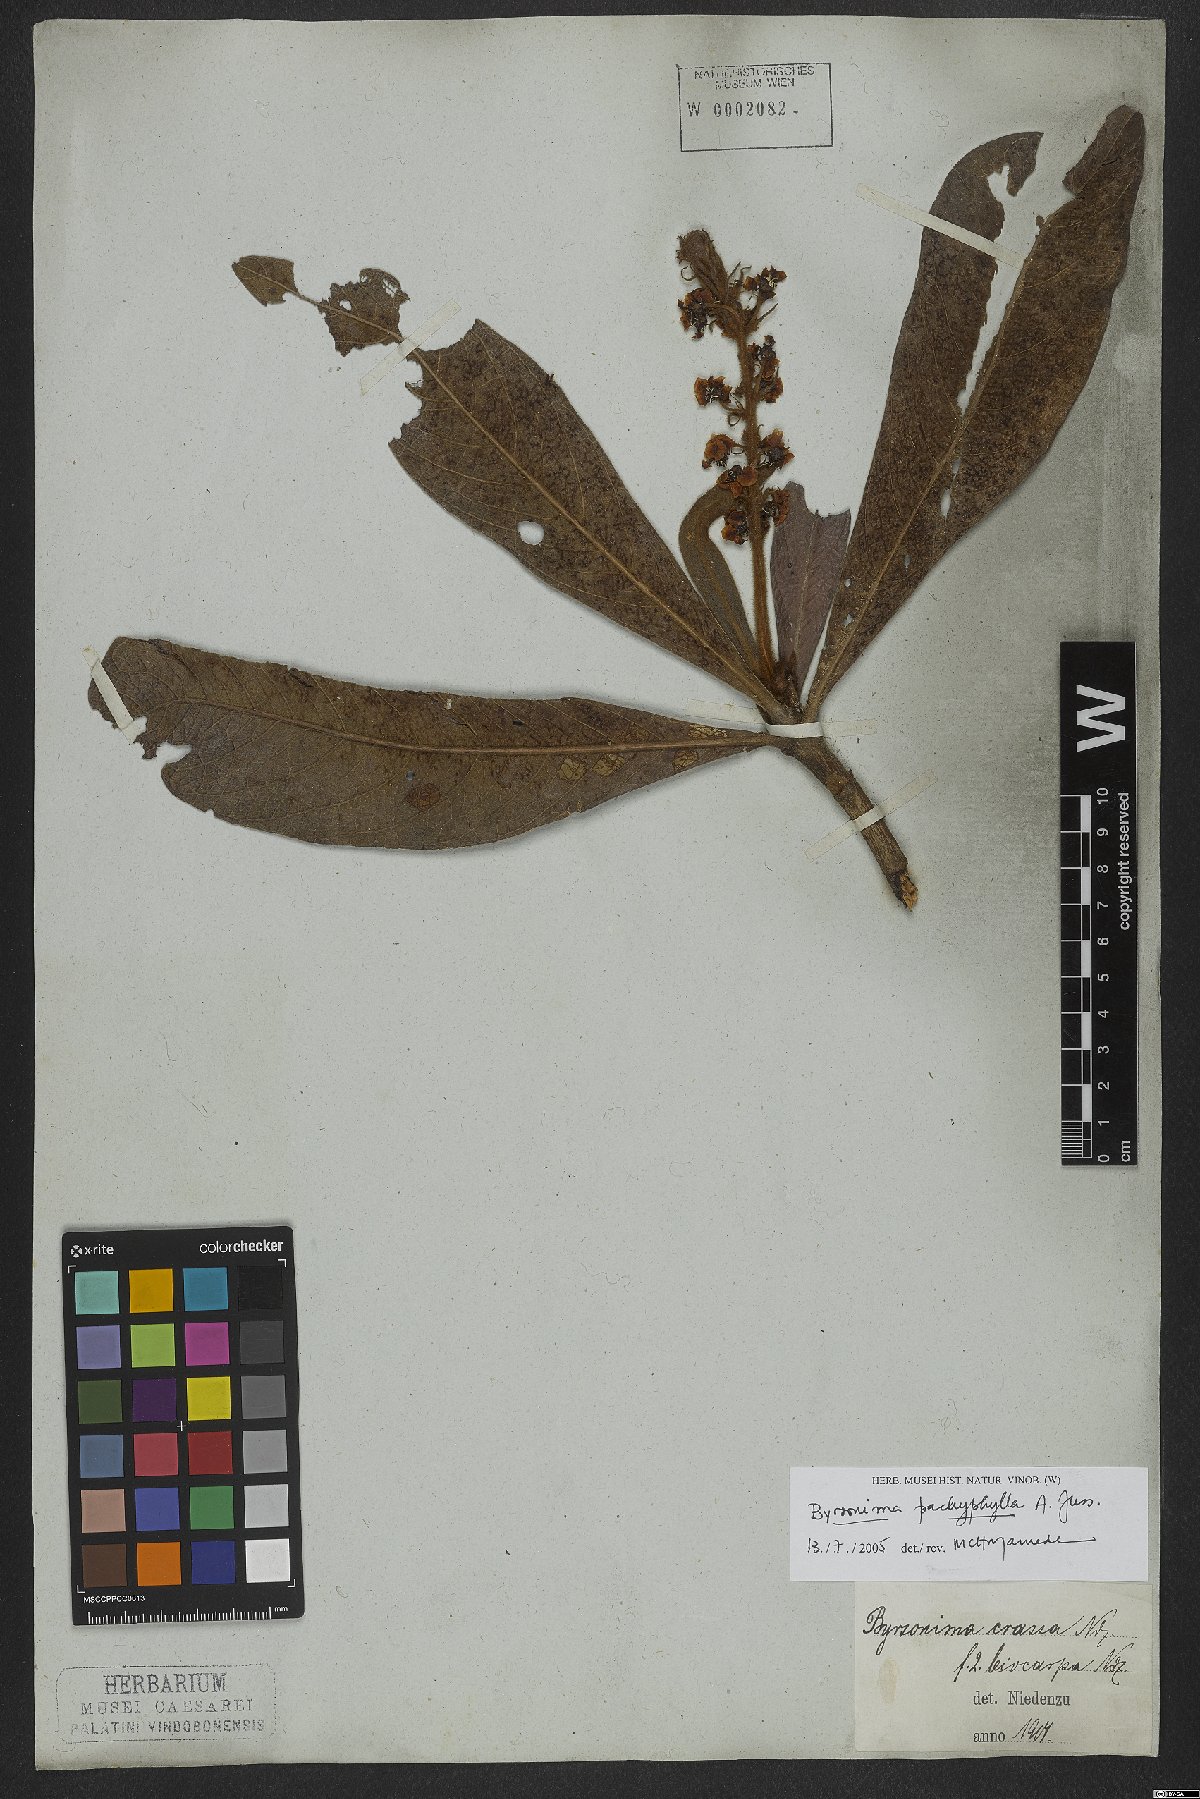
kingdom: Plantae
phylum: Tracheophyta
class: Magnoliopsida
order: Malpighiales
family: Malpighiaceae
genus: Byrsonima
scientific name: Byrsonima pachyphylla
